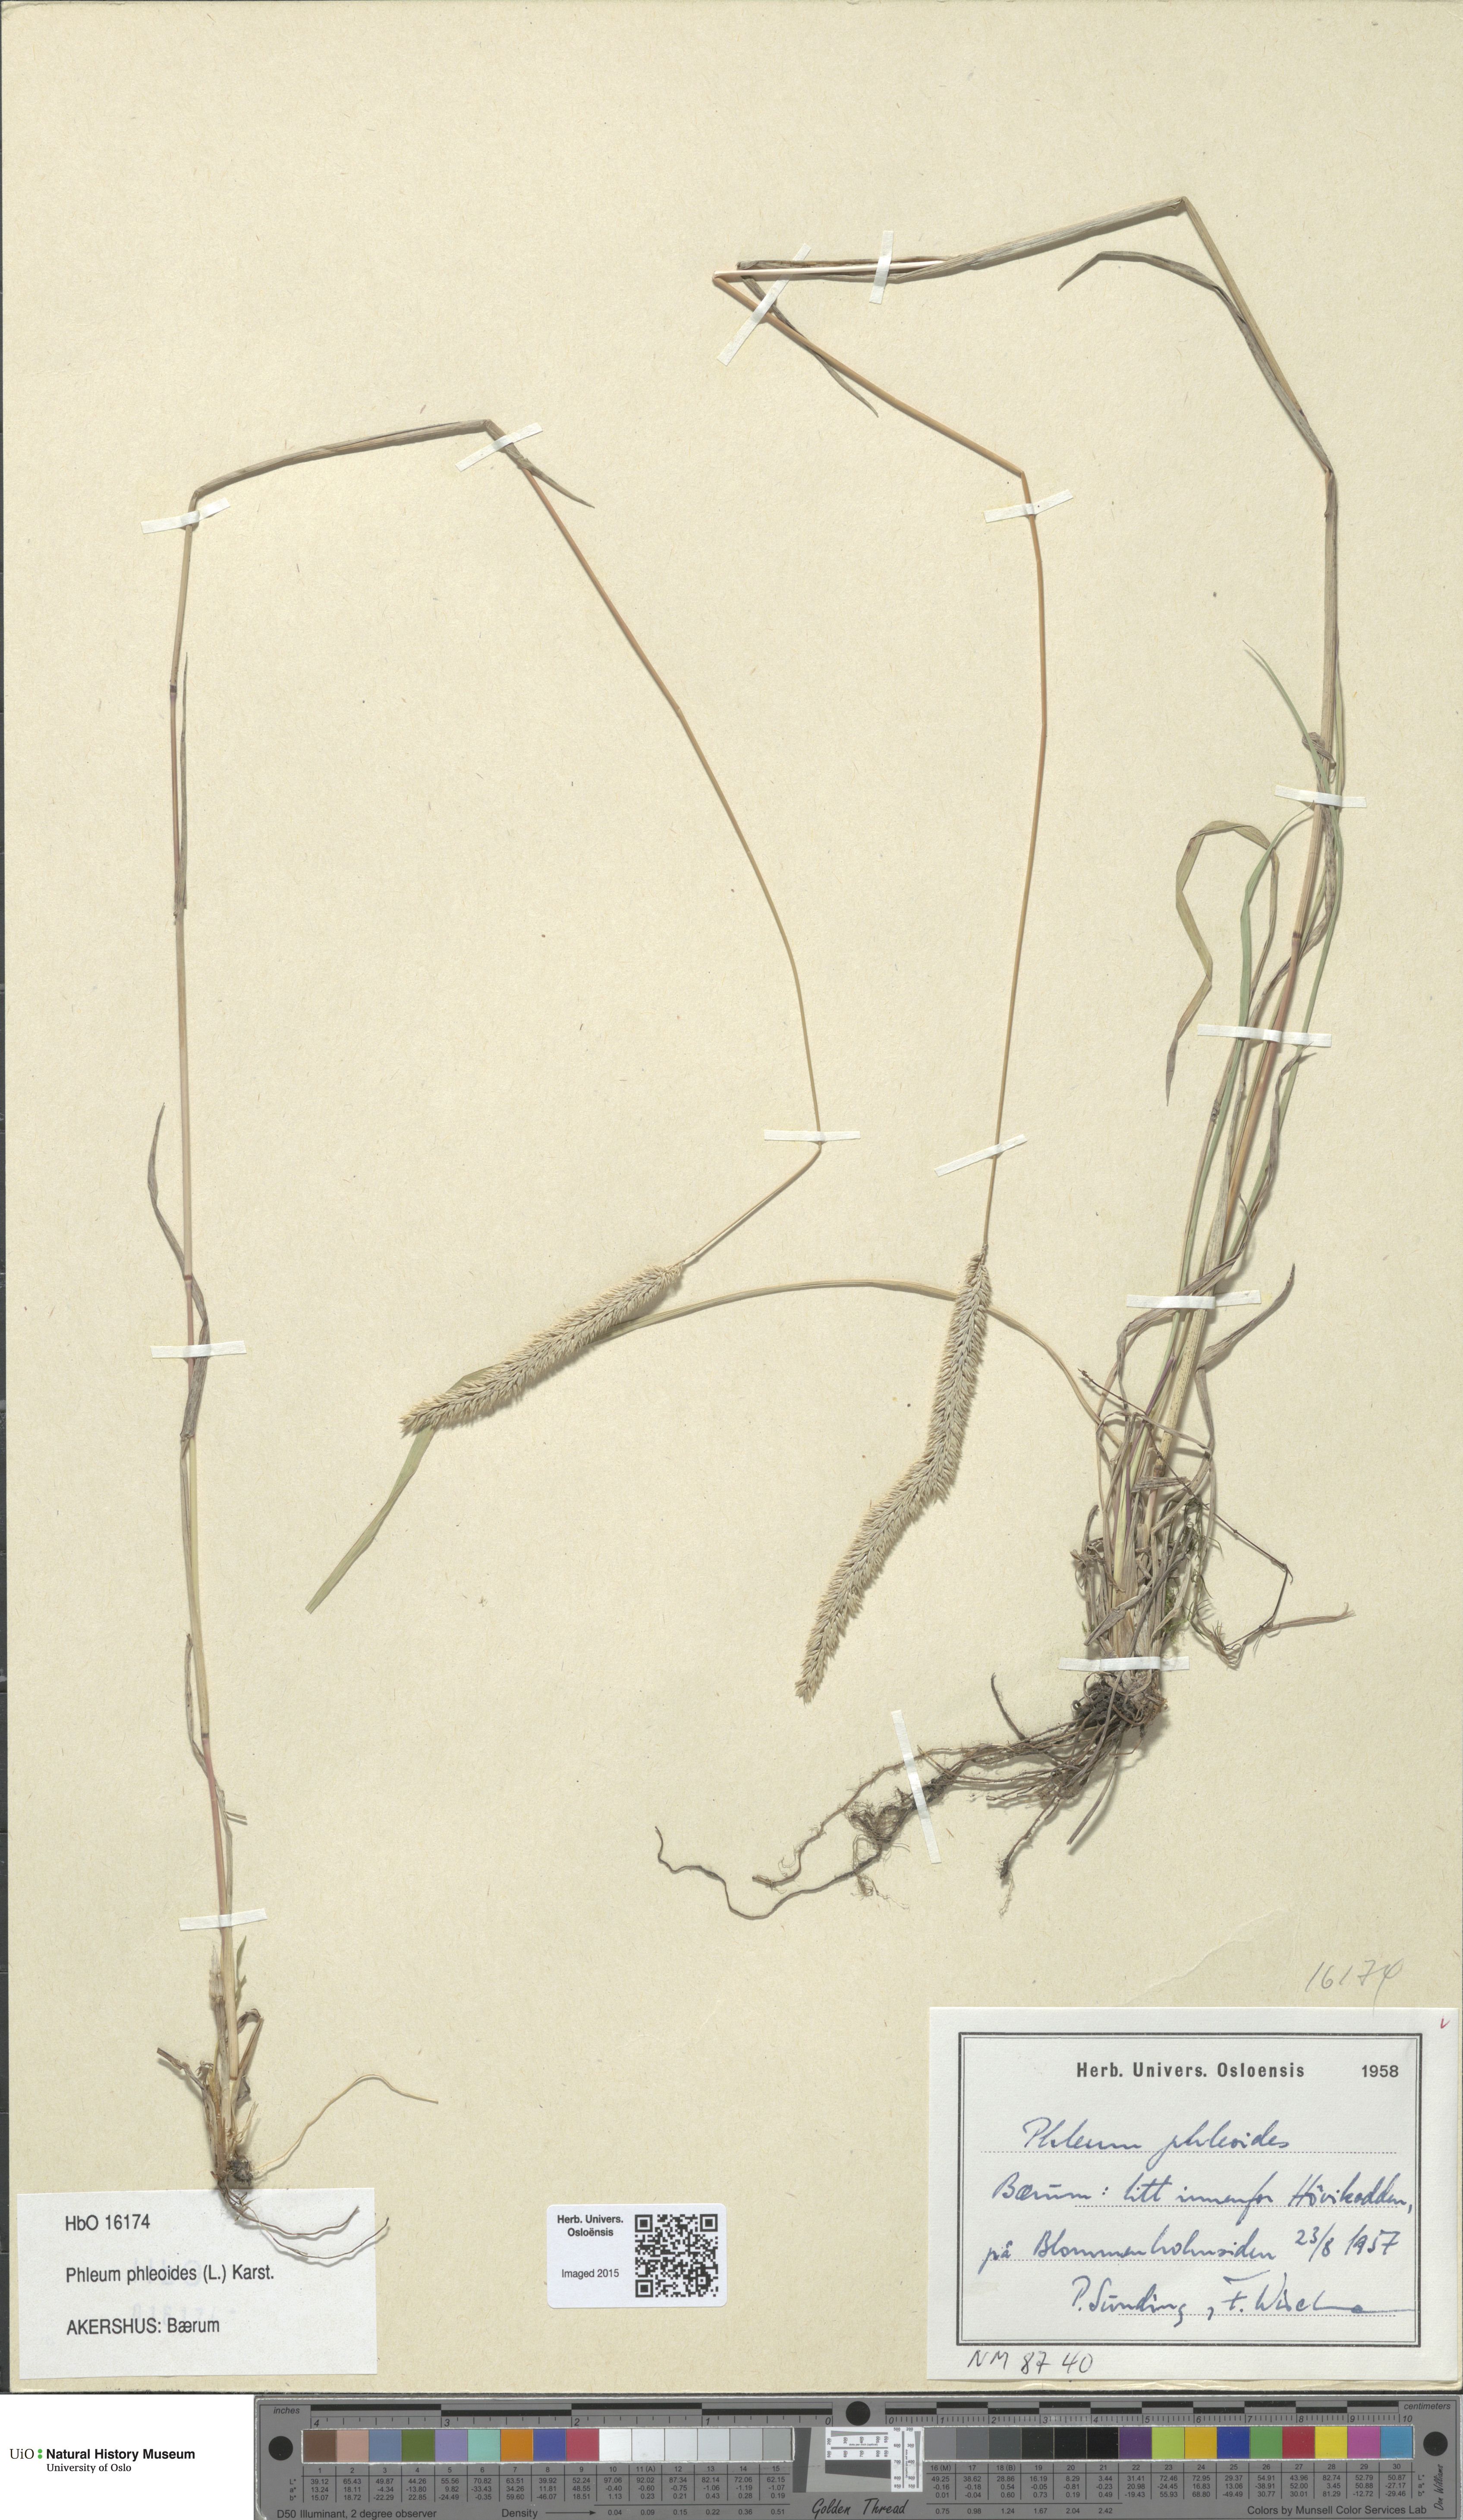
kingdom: Plantae
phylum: Tracheophyta
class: Liliopsida
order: Poales
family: Poaceae
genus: Phleum
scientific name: Phleum phleoides
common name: Purple-stem cat's-tail
